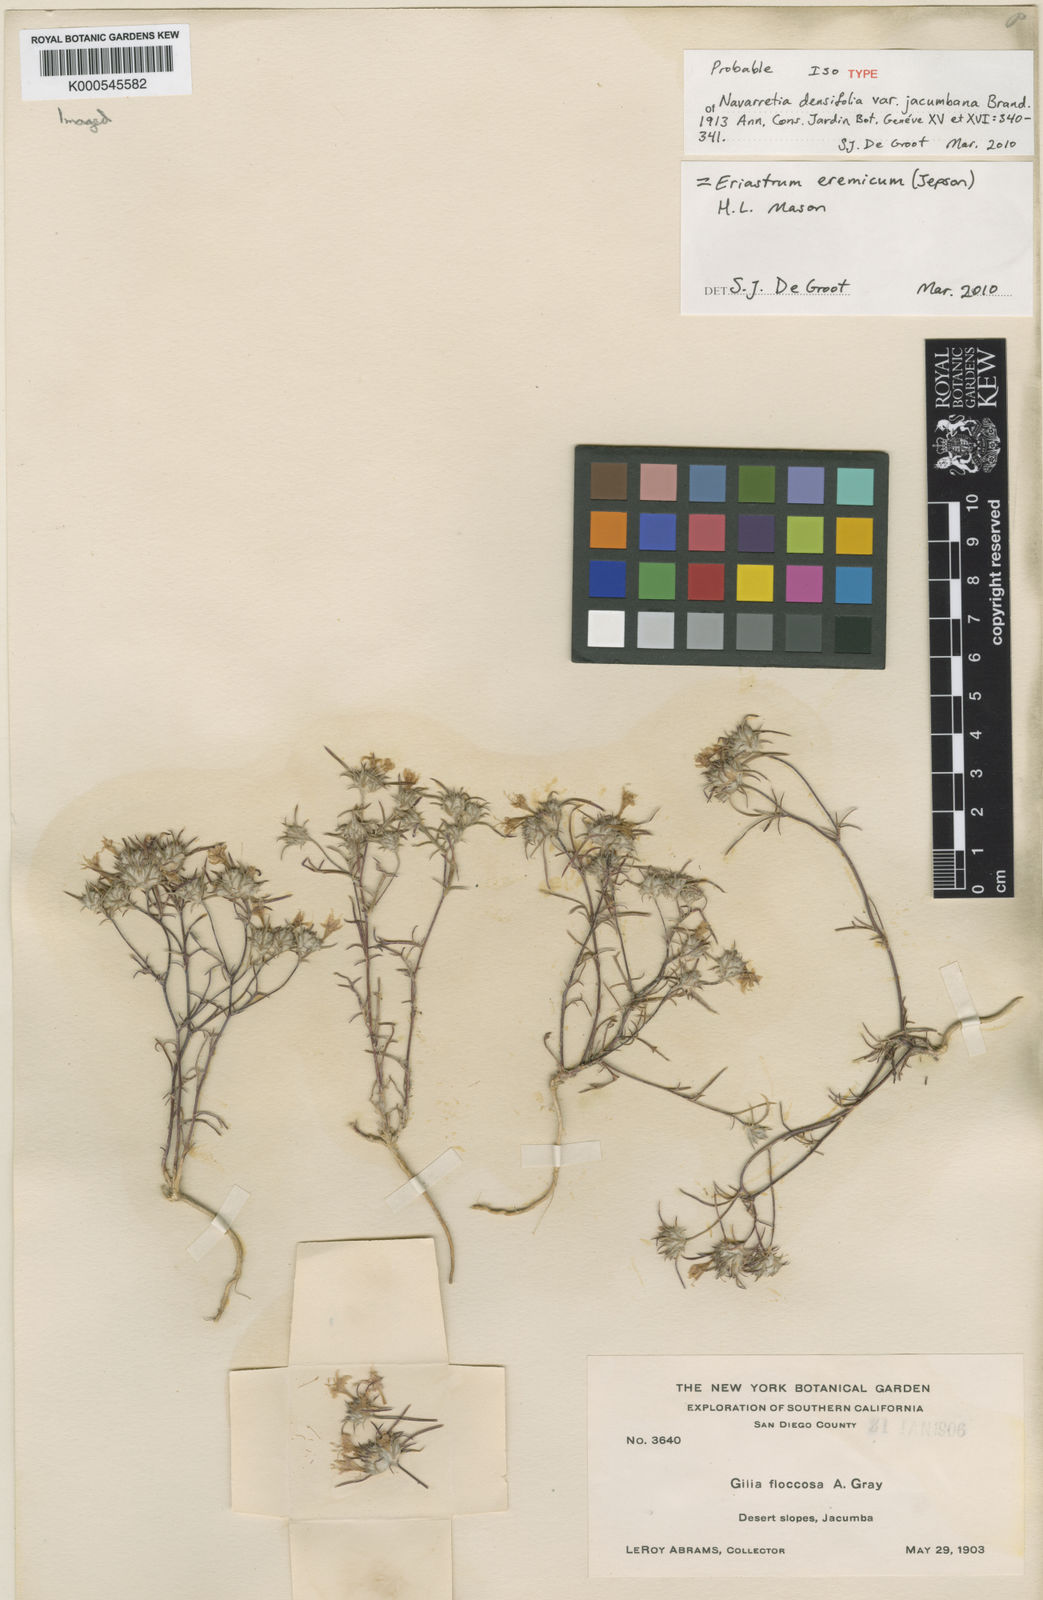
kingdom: Plantae
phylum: Tracheophyta
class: Magnoliopsida
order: Ericales
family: Polemoniaceae
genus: Eriastrum
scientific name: Eriastrum eremicum
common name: Desert eriastrum
